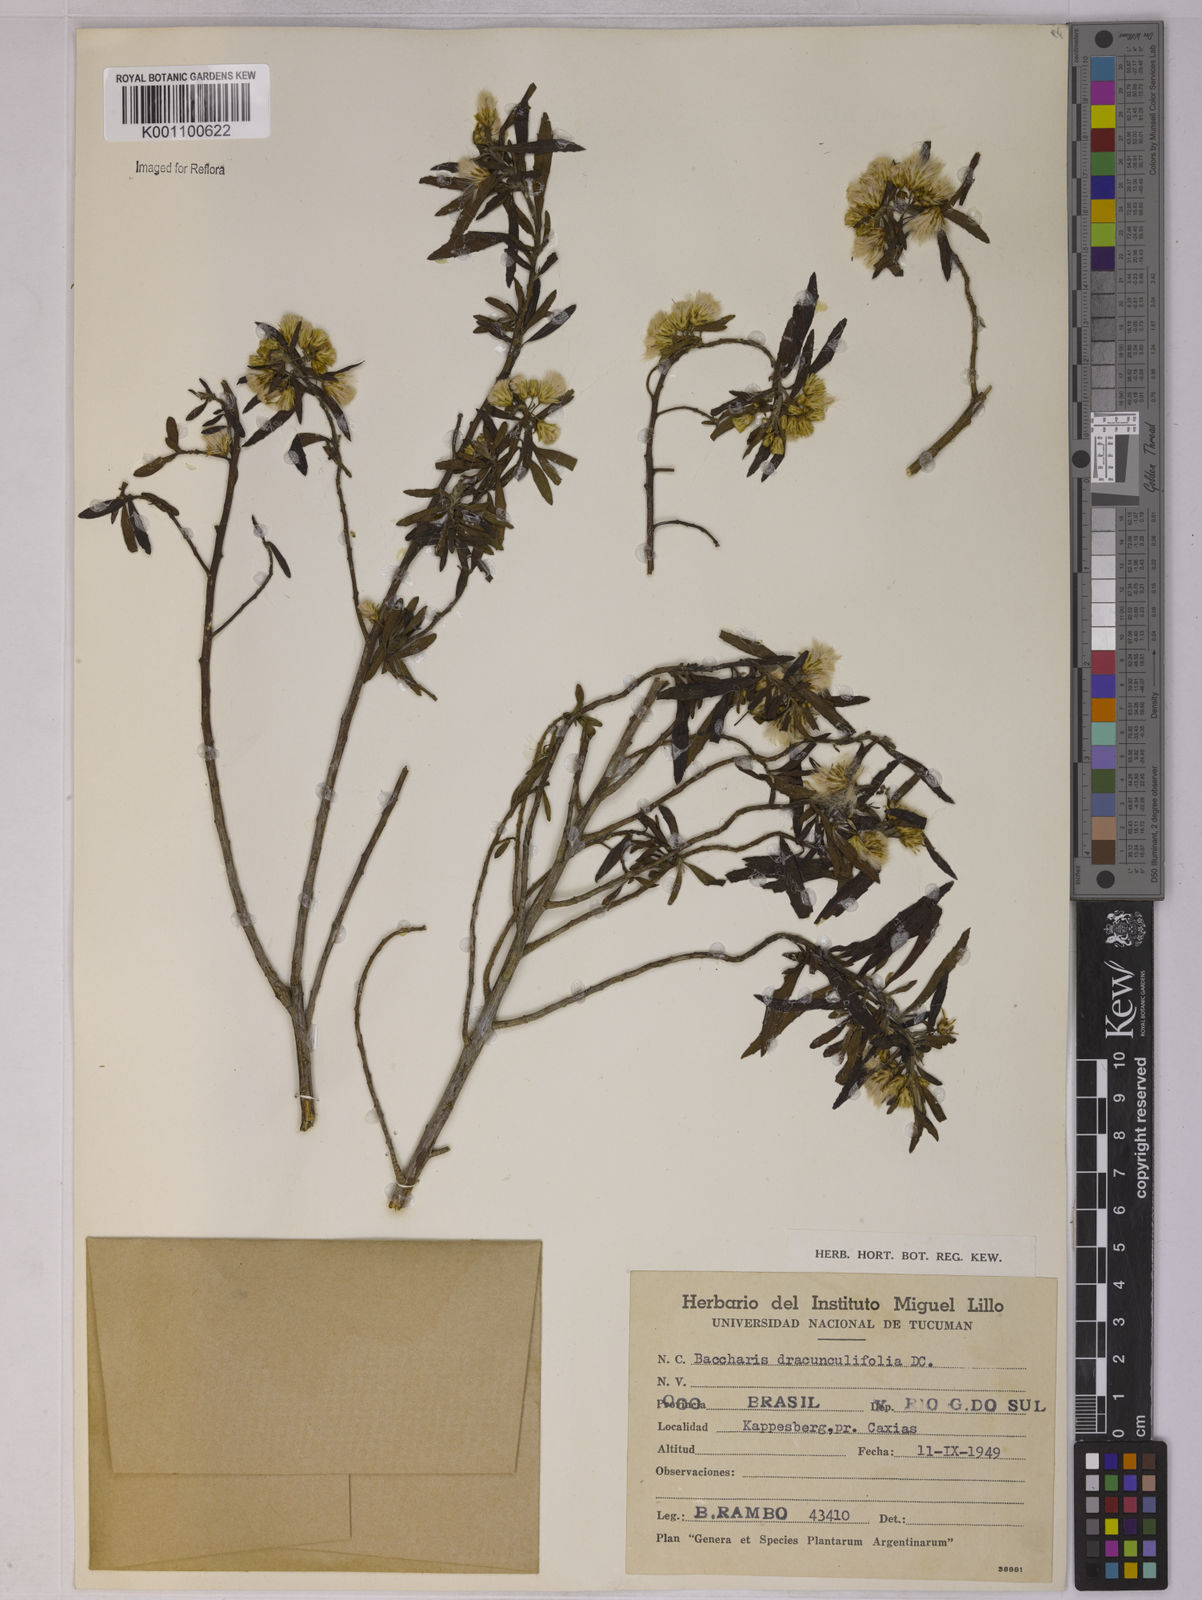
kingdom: Plantae
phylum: Tracheophyta
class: Magnoliopsida
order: Asterales
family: Asteraceae
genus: Baccharis
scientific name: Baccharis dracunculifolia
